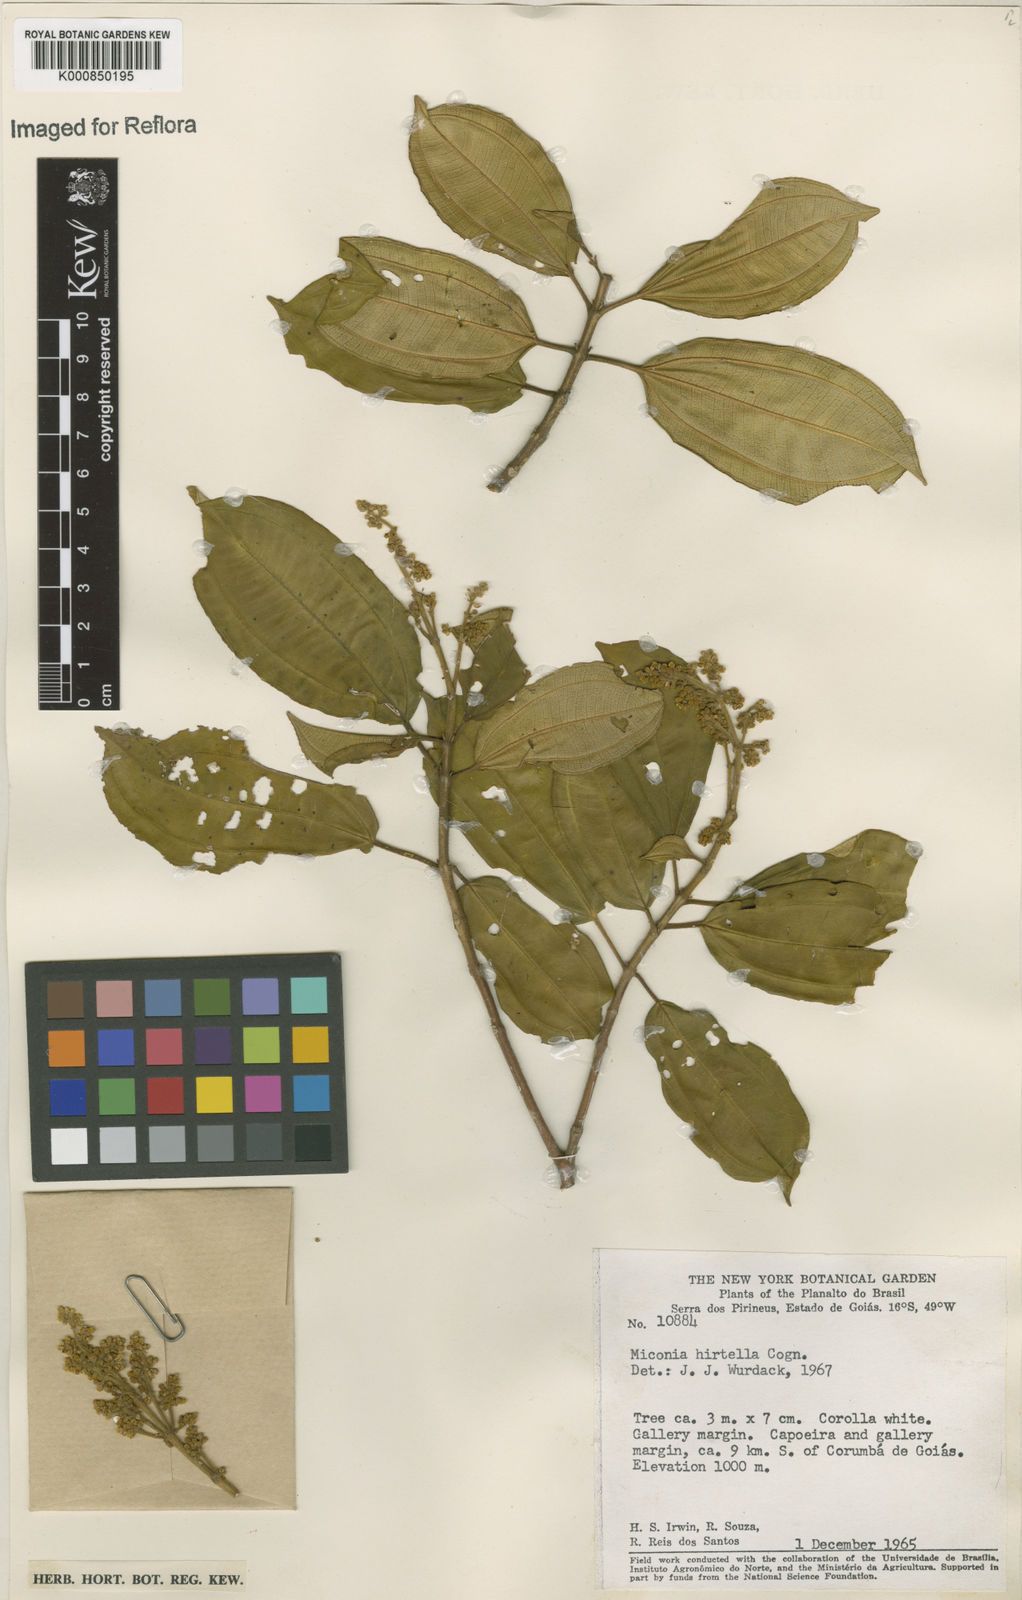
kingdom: Plantae
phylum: Tracheophyta
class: Magnoliopsida
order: Myrtales
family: Melastomataceae
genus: Miconia
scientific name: Miconia hirta
